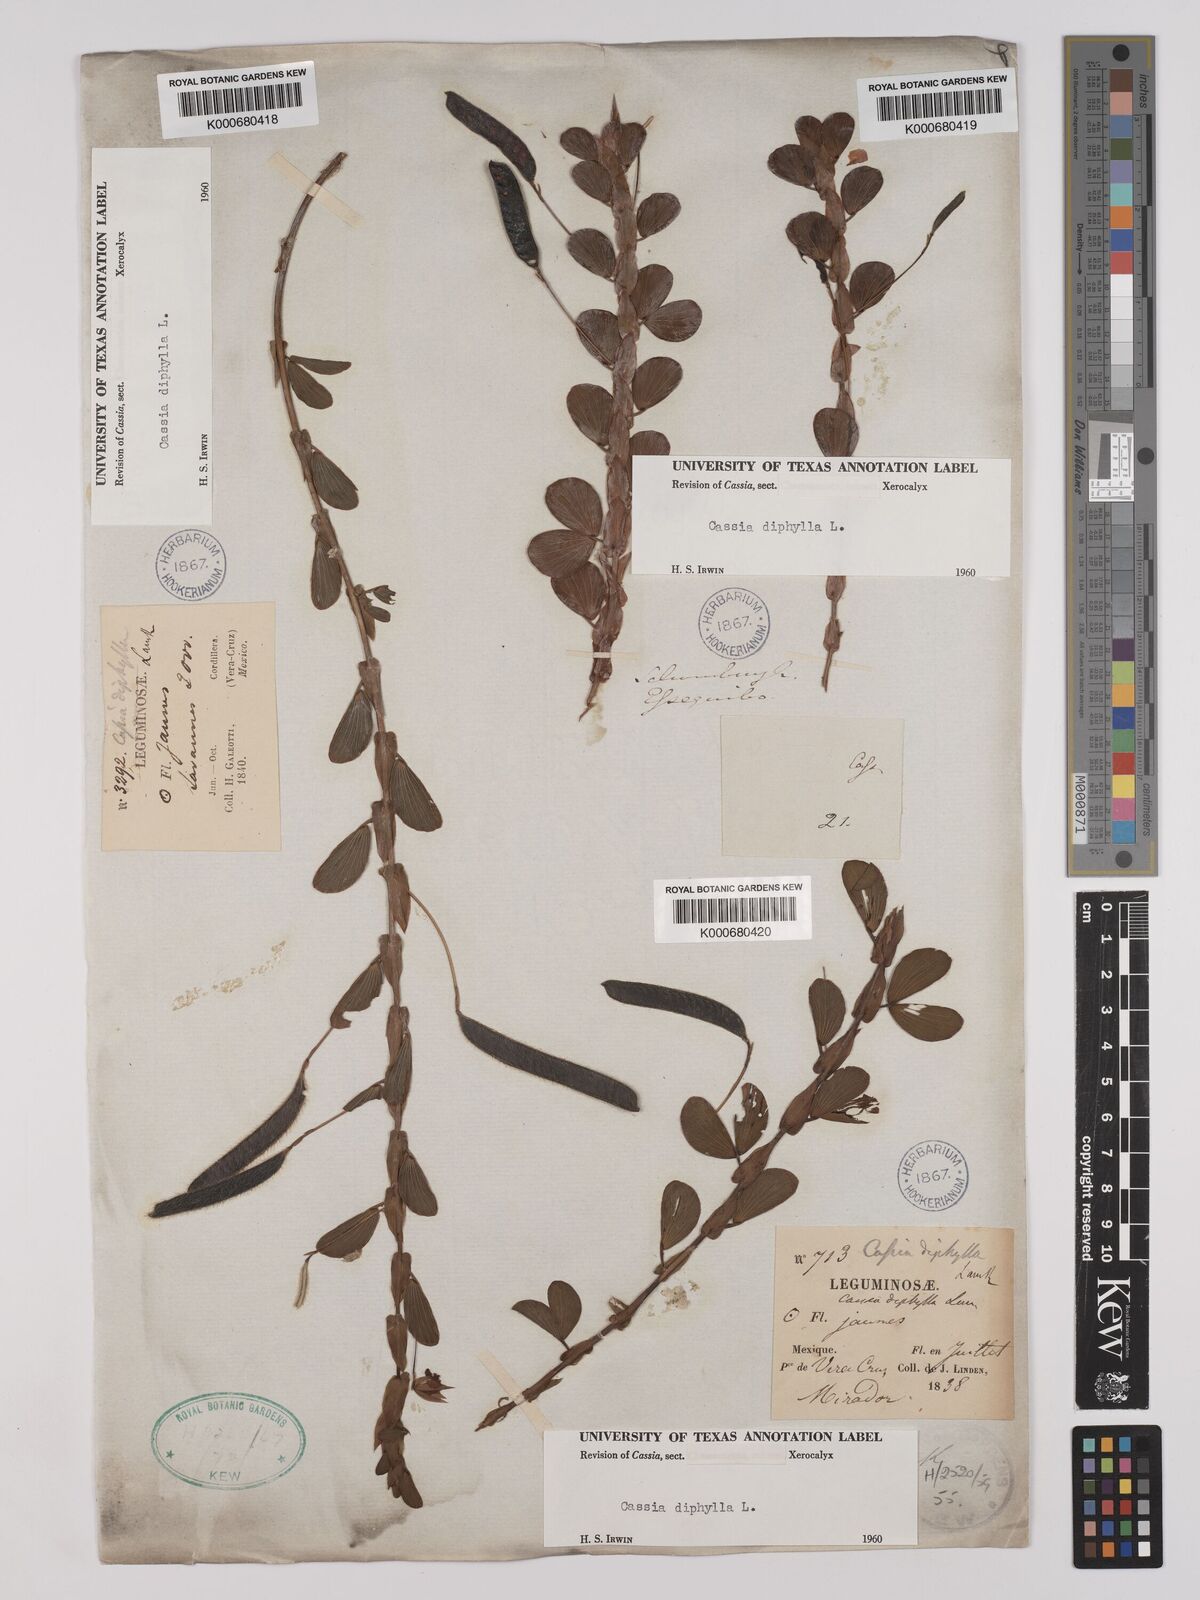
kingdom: Plantae
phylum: Tracheophyta
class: Magnoliopsida
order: Fabales
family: Fabaceae
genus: Chamaecrista
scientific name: Chamaecrista diphylla
